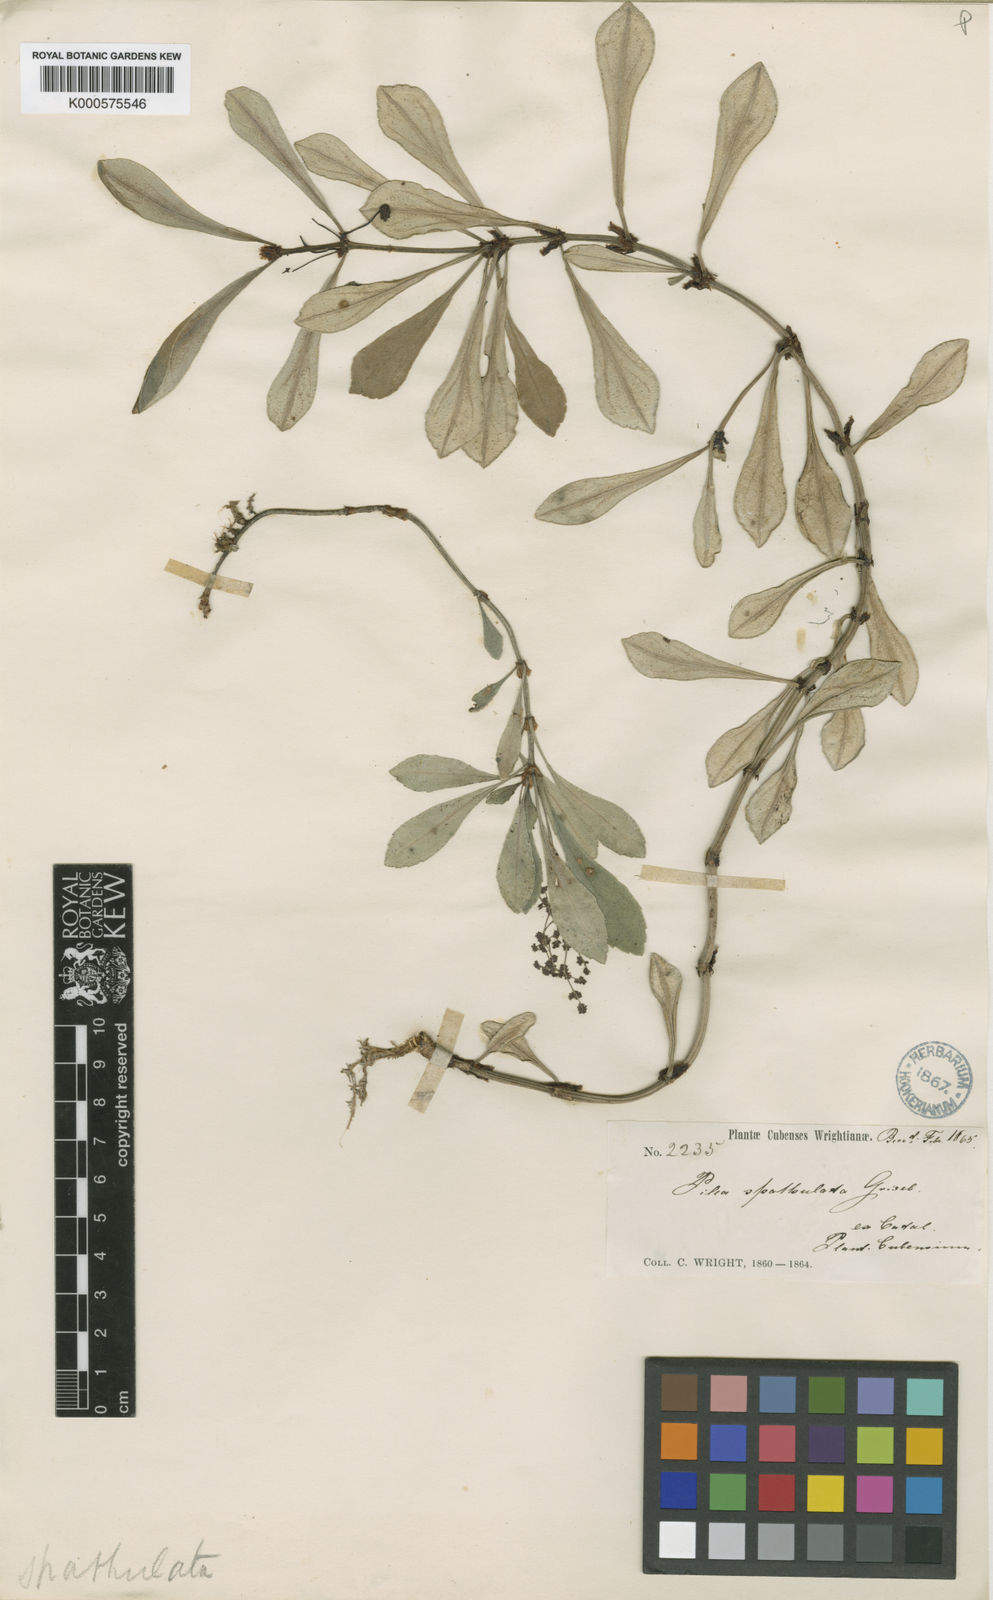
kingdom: Plantae
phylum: Tracheophyta
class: Magnoliopsida
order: Rosales
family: Urticaceae
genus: Pilea
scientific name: Pilea spathulata
